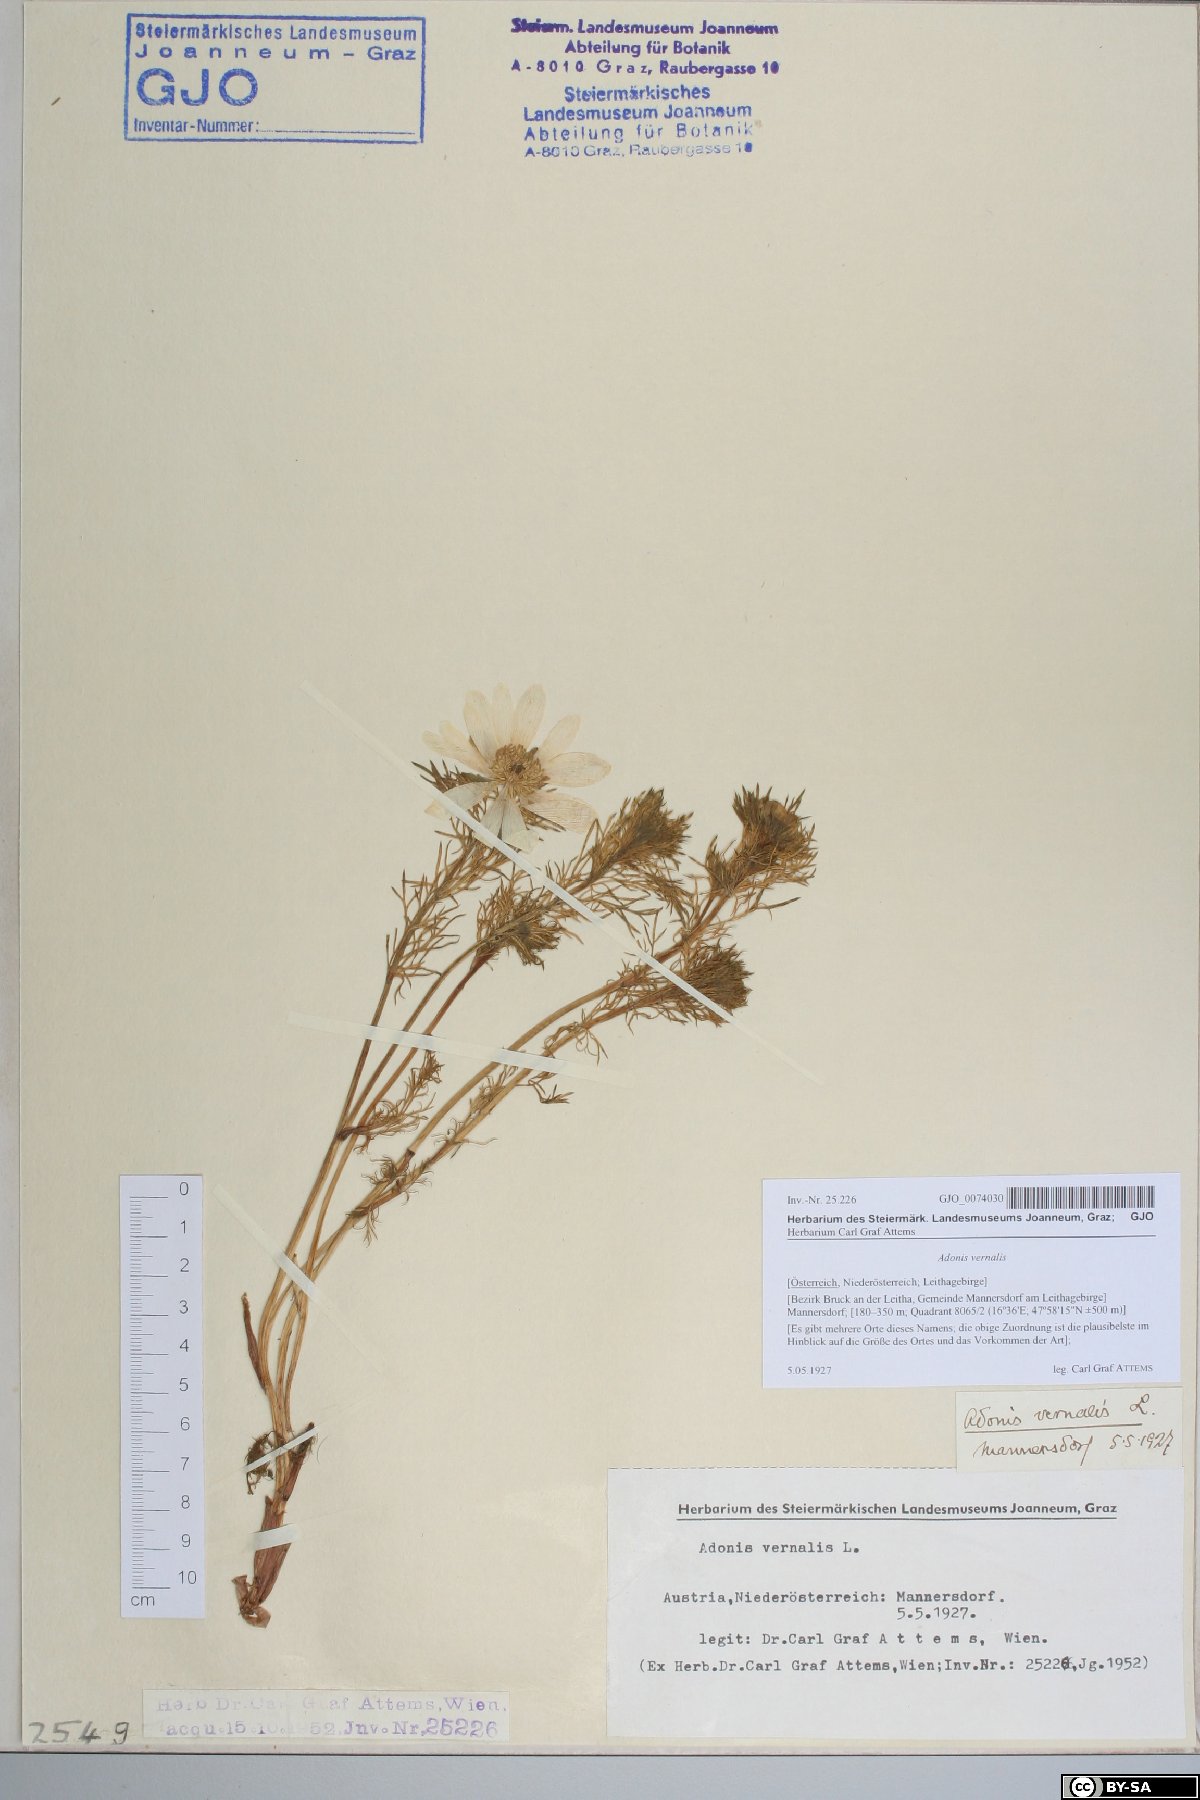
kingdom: Plantae
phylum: Tracheophyta
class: Magnoliopsida
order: Ranunculales
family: Ranunculaceae
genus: Adonis
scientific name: Adonis vernalis
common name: Yellow pheasants-eye
